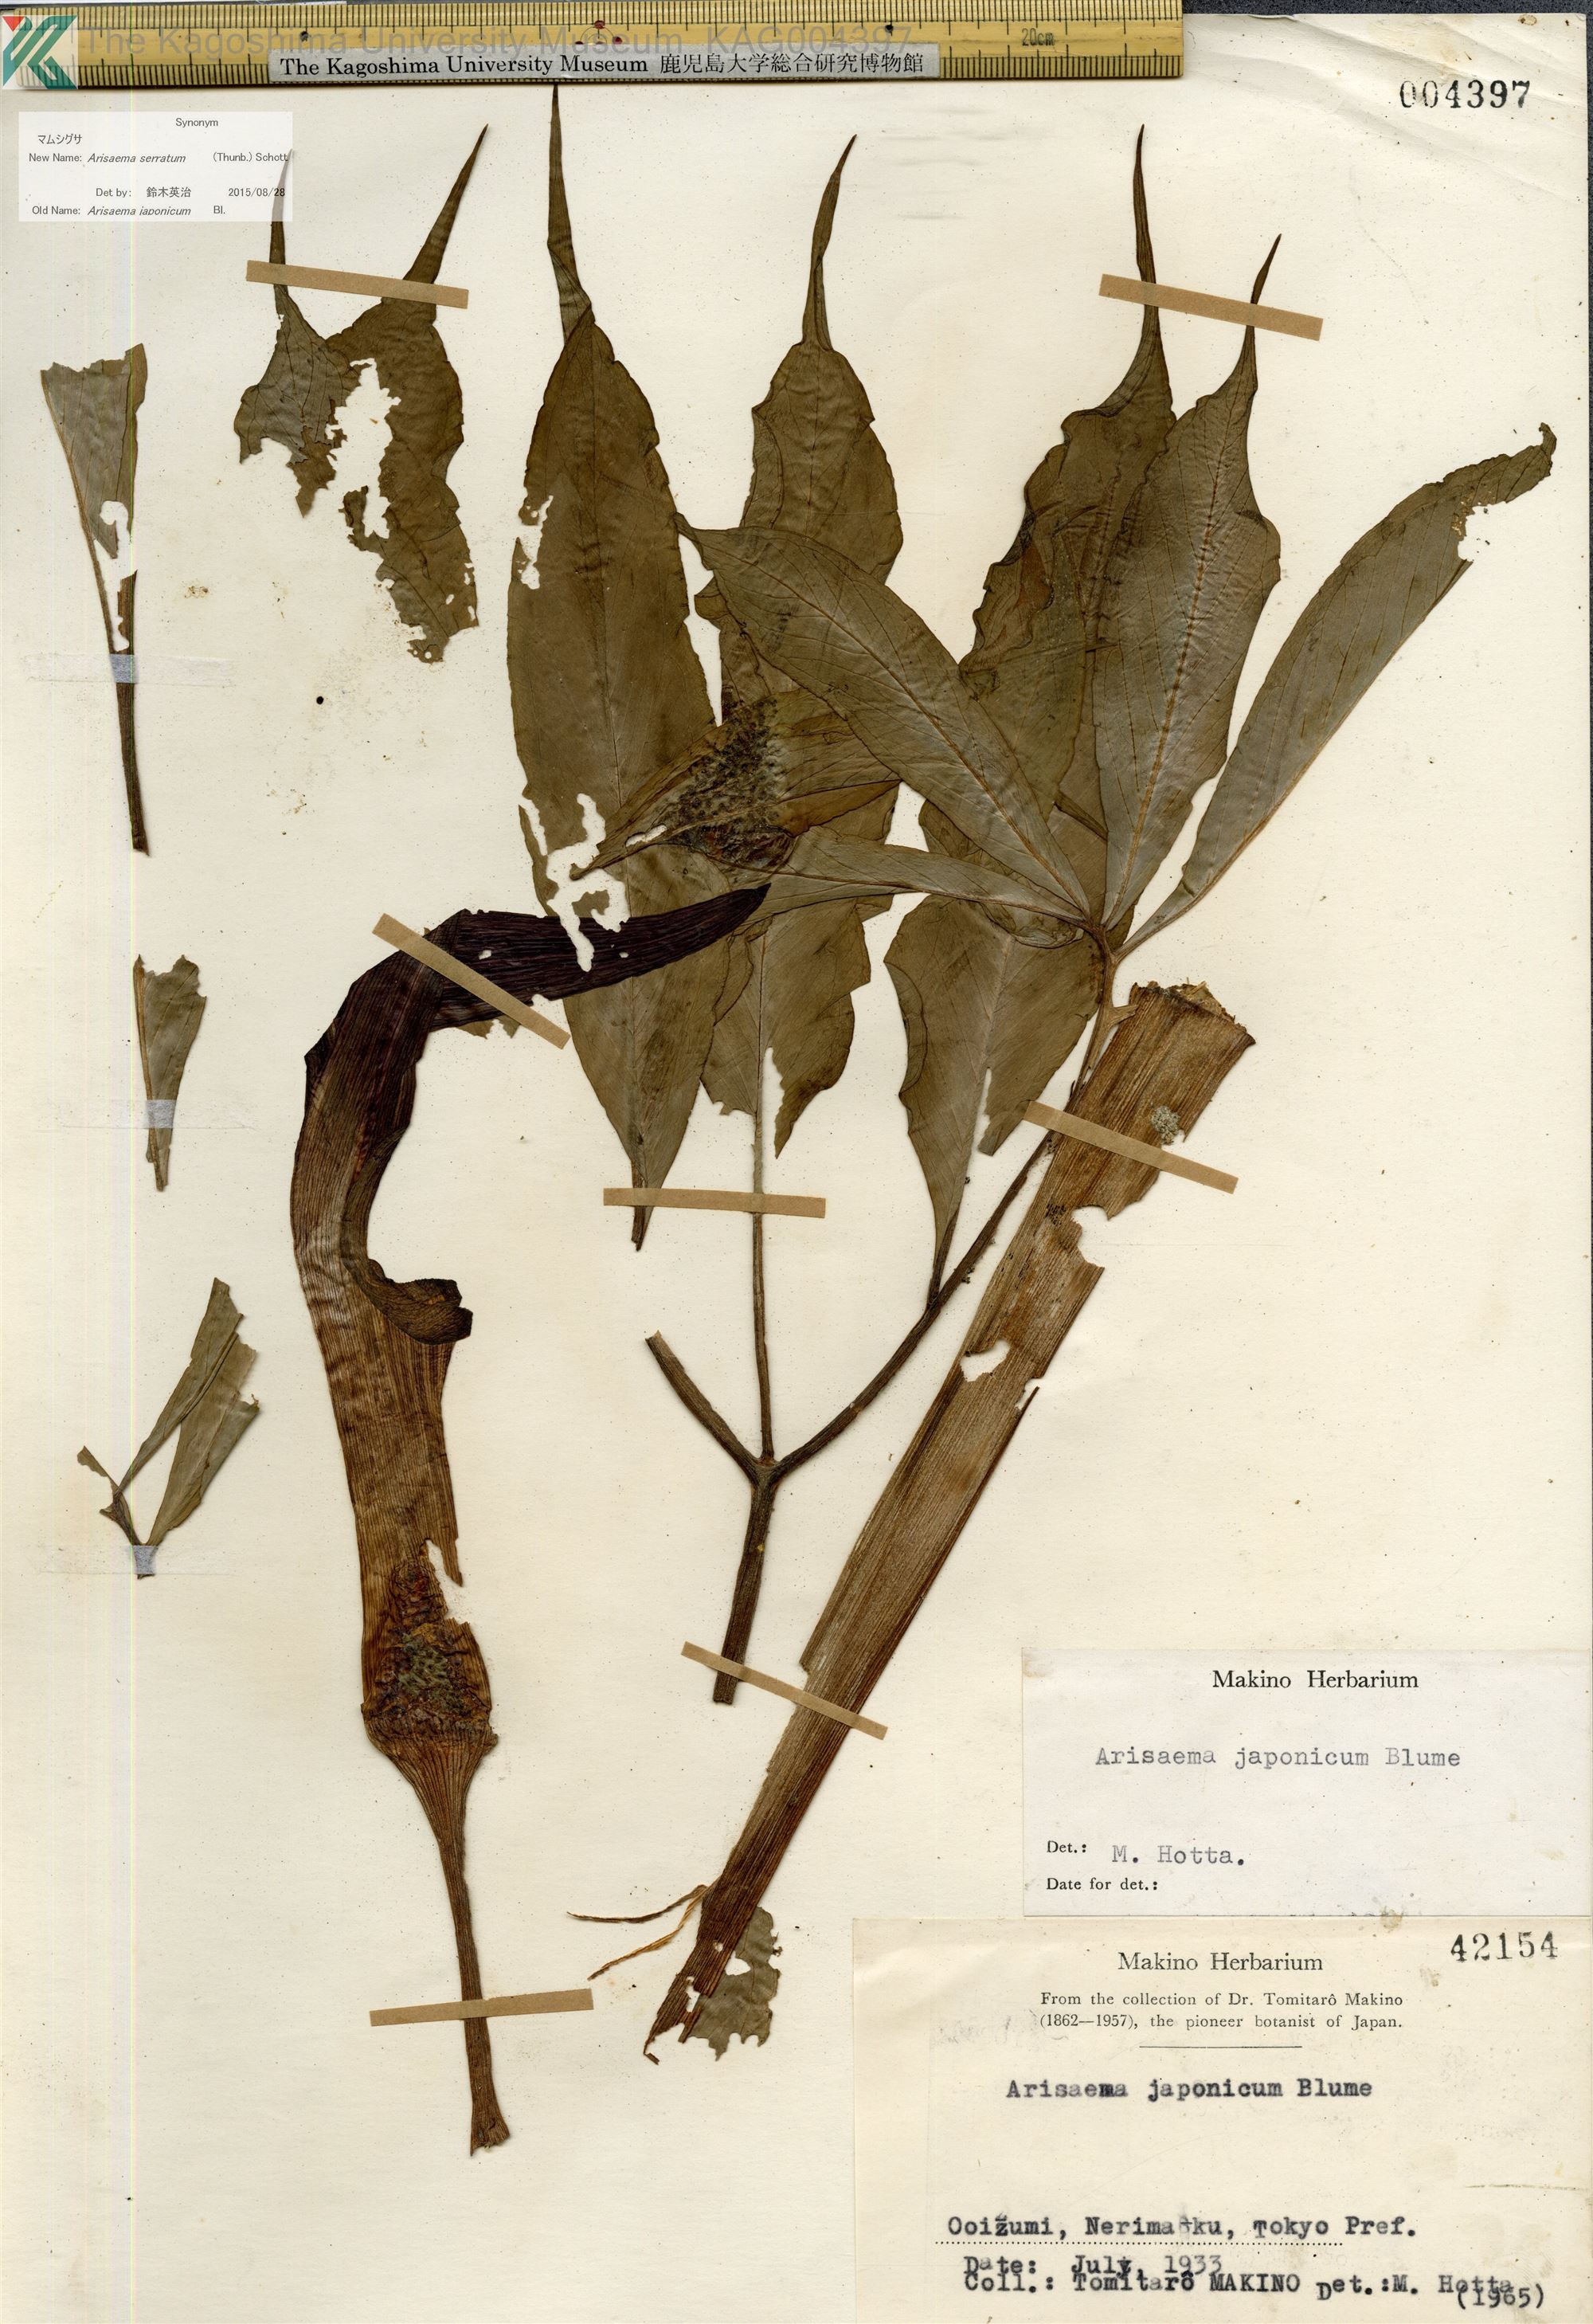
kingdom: Plantae
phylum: Tracheophyta
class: Liliopsida
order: Alismatales
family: Araceae
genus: Arisaema
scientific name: Arisaema serratum
